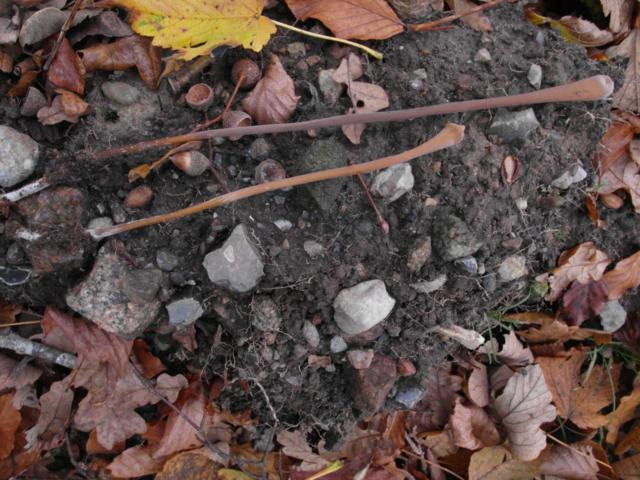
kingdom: Fungi
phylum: Basidiomycota
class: Agaricomycetes
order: Agaricales
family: Typhulaceae
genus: Typhula
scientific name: Typhula fistulosa
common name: pibet rørkølle
